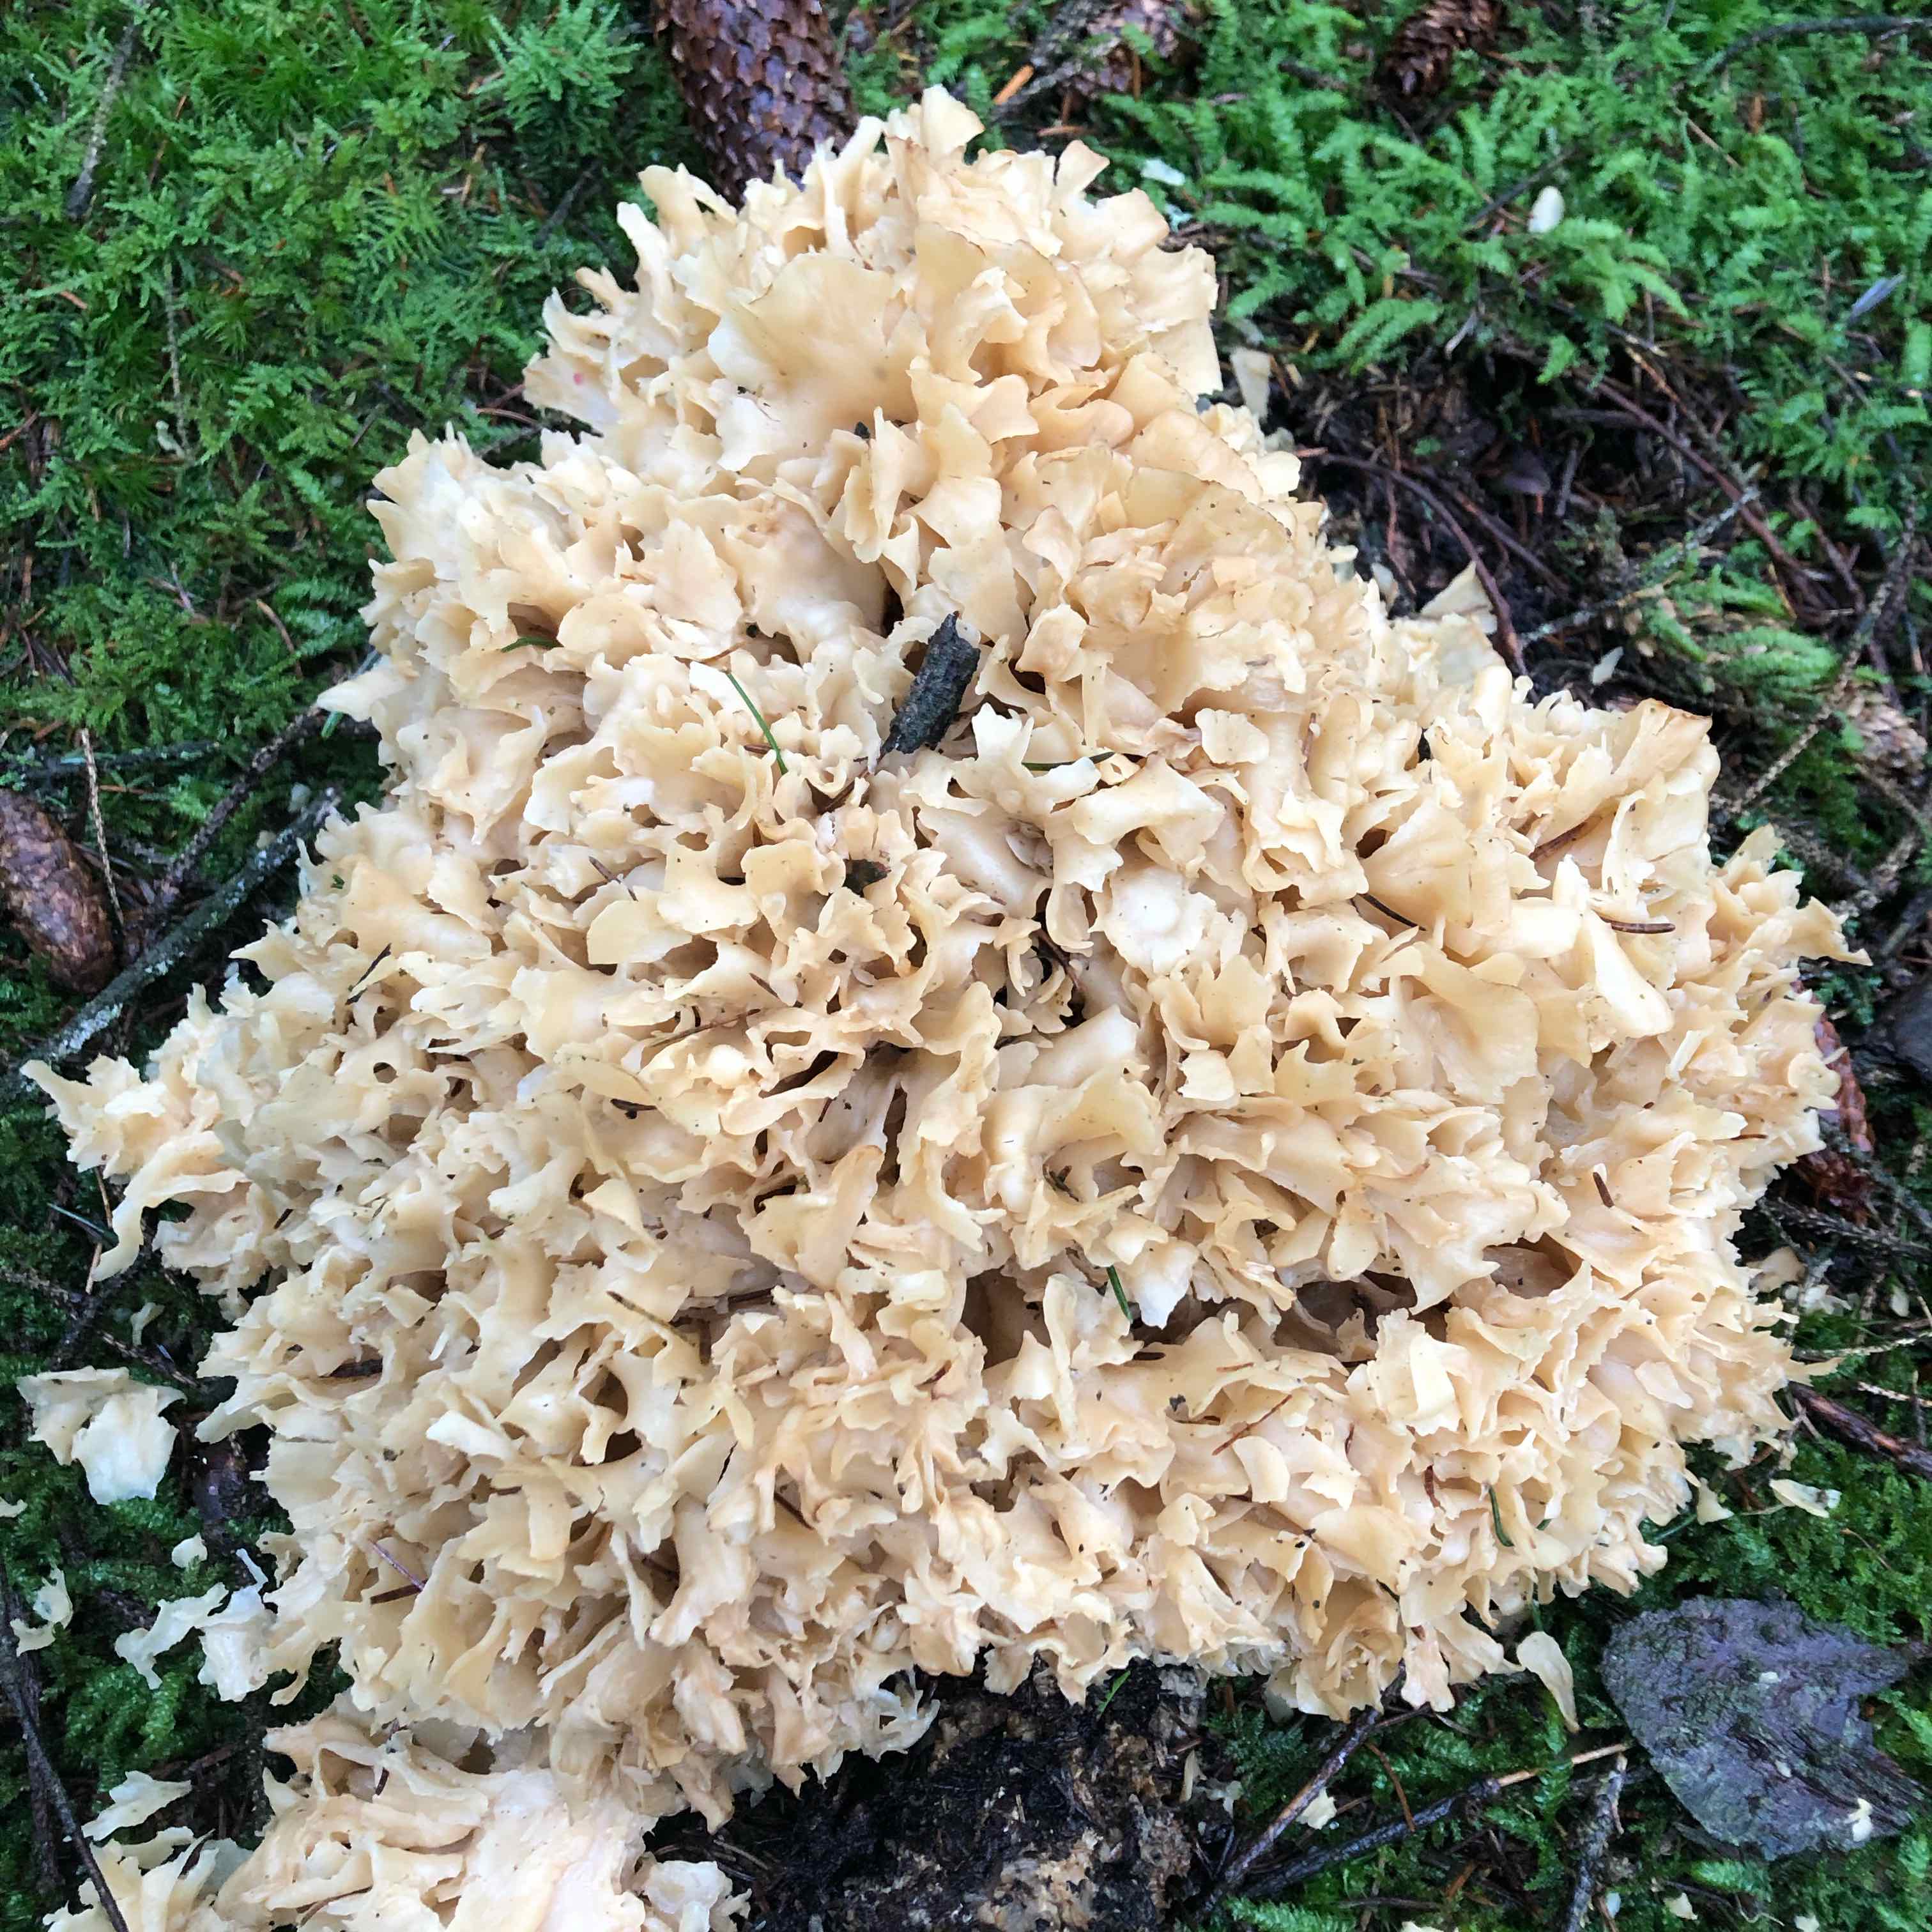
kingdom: Fungi
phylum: Basidiomycota
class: Agaricomycetes
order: Polyporales
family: Sparassidaceae
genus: Sparassis
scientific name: Sparassis crispa
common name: kruset blomkålssvamp
